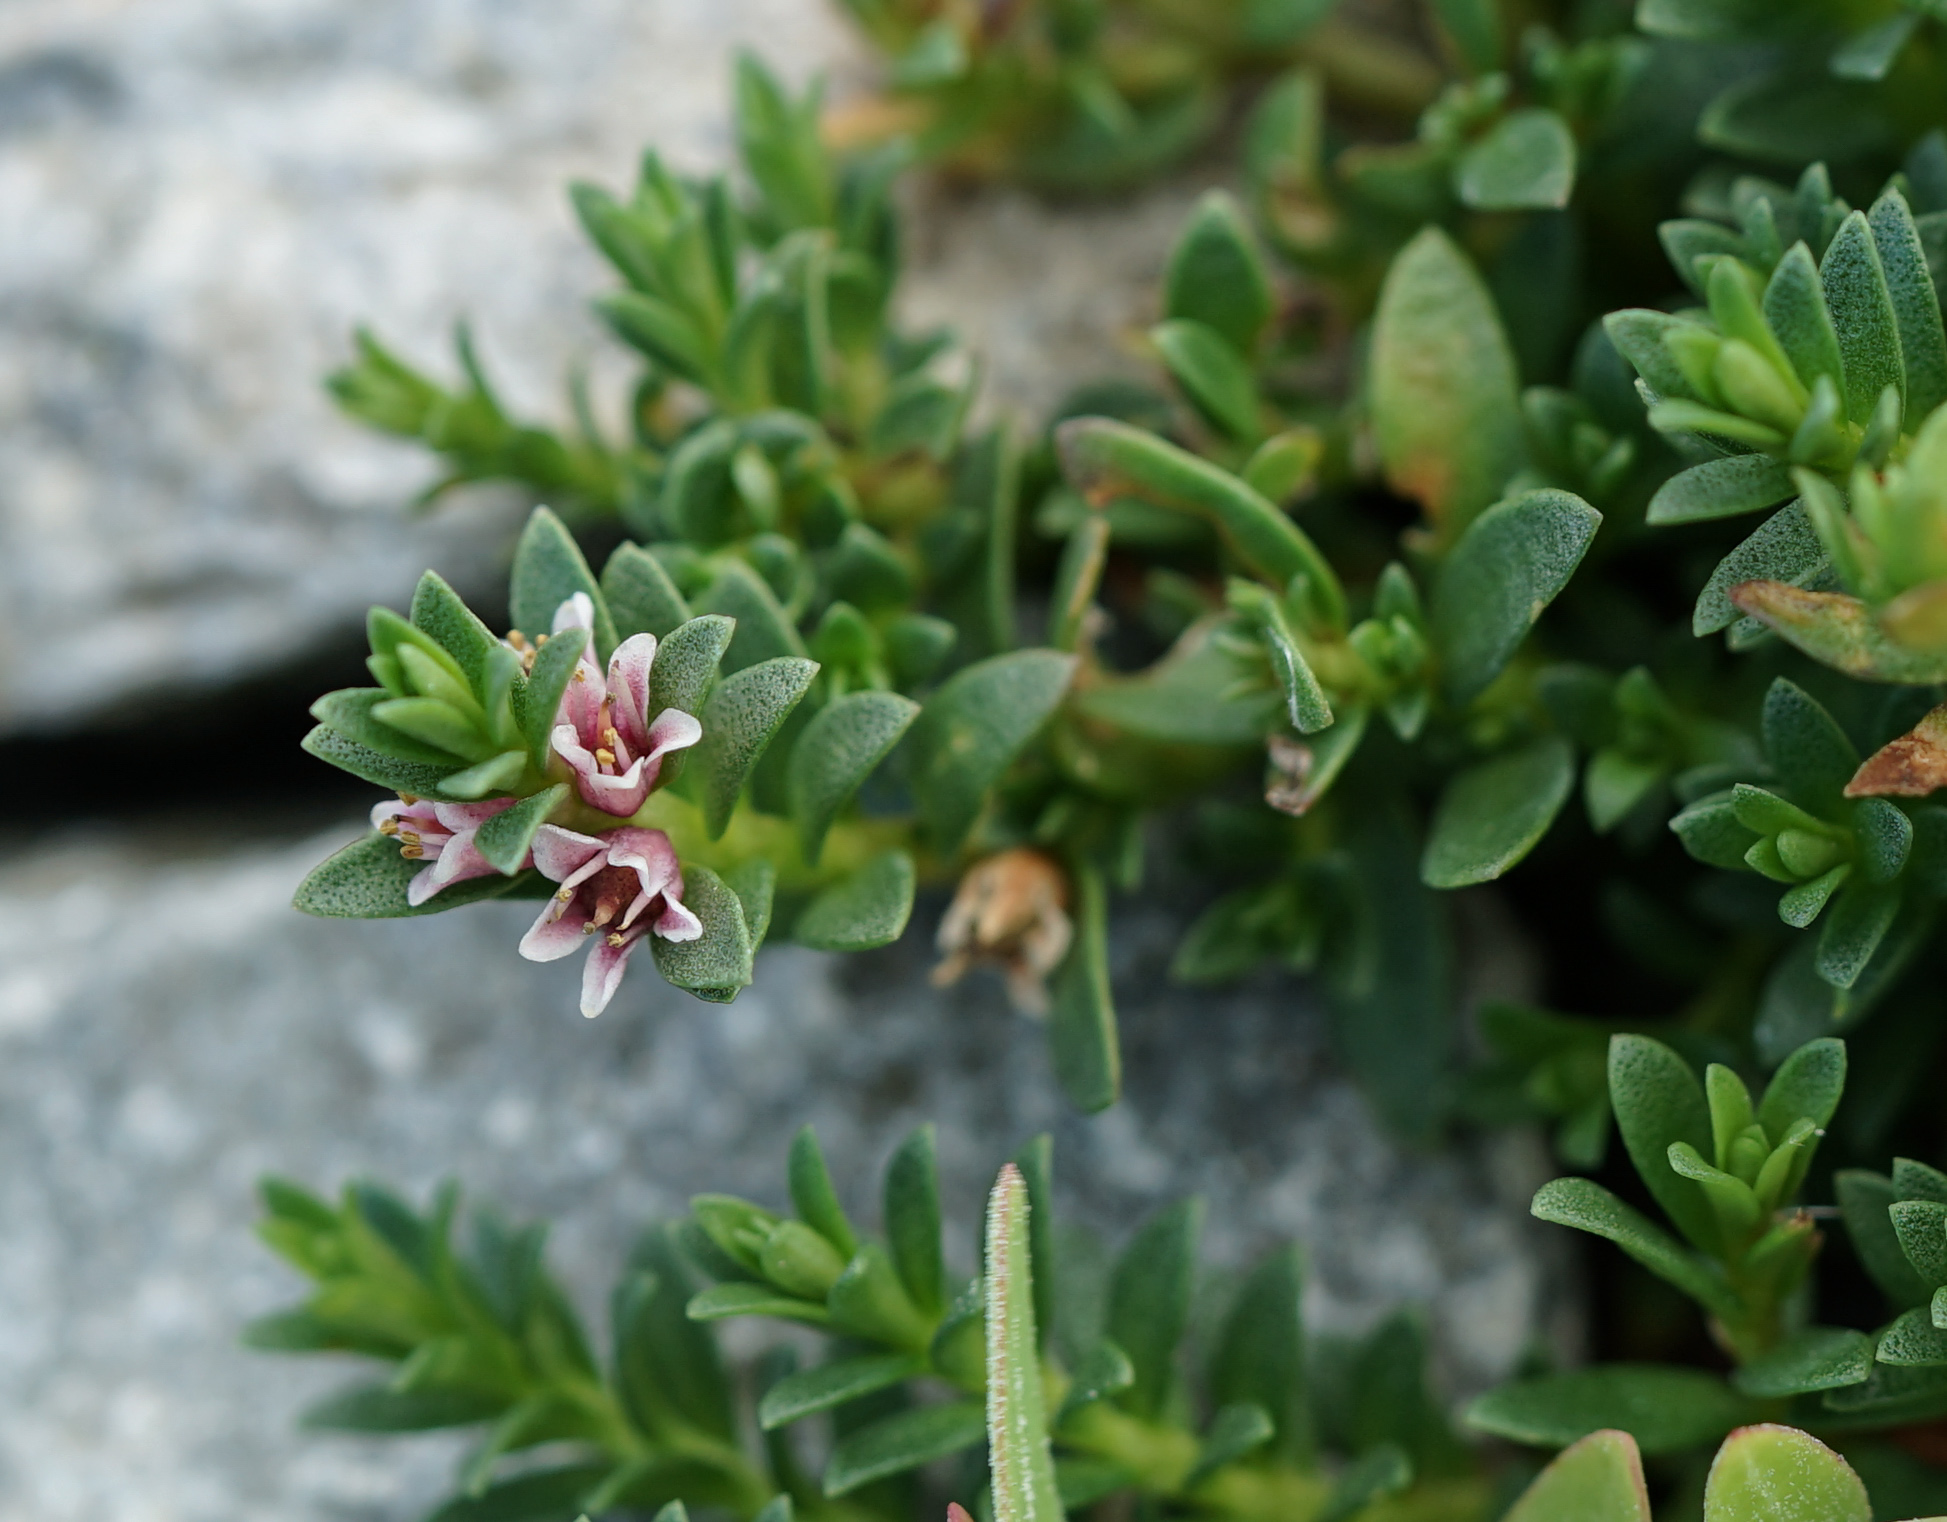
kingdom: Plantae
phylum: Tracheophyta
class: Magnoliopsida
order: Ericales
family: Primulaceae
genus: Lysimachia
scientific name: Lysimachia maritima
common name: Sea milkwort
